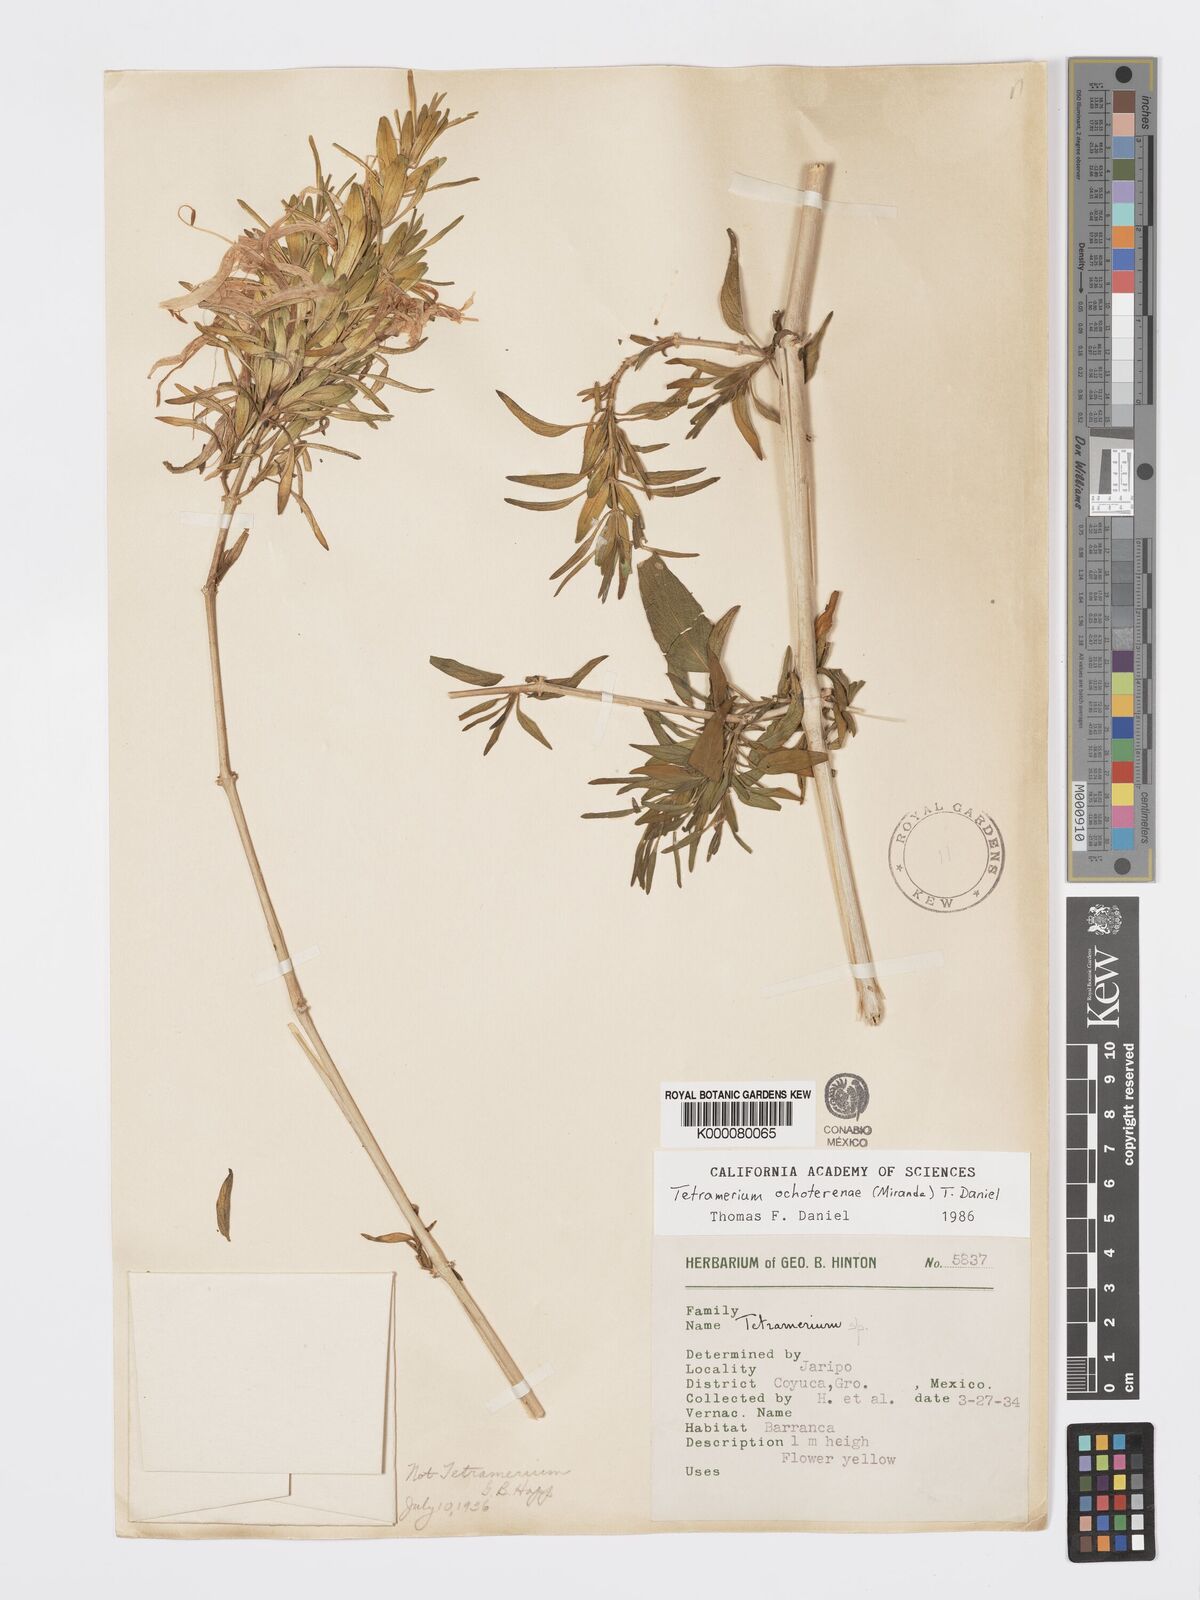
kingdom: Plantae
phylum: Tracheophyta
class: Magnoliopsida
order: Lamiales
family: Acanthaceae
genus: Tetramerium
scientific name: Tetramerium ochoterenae
